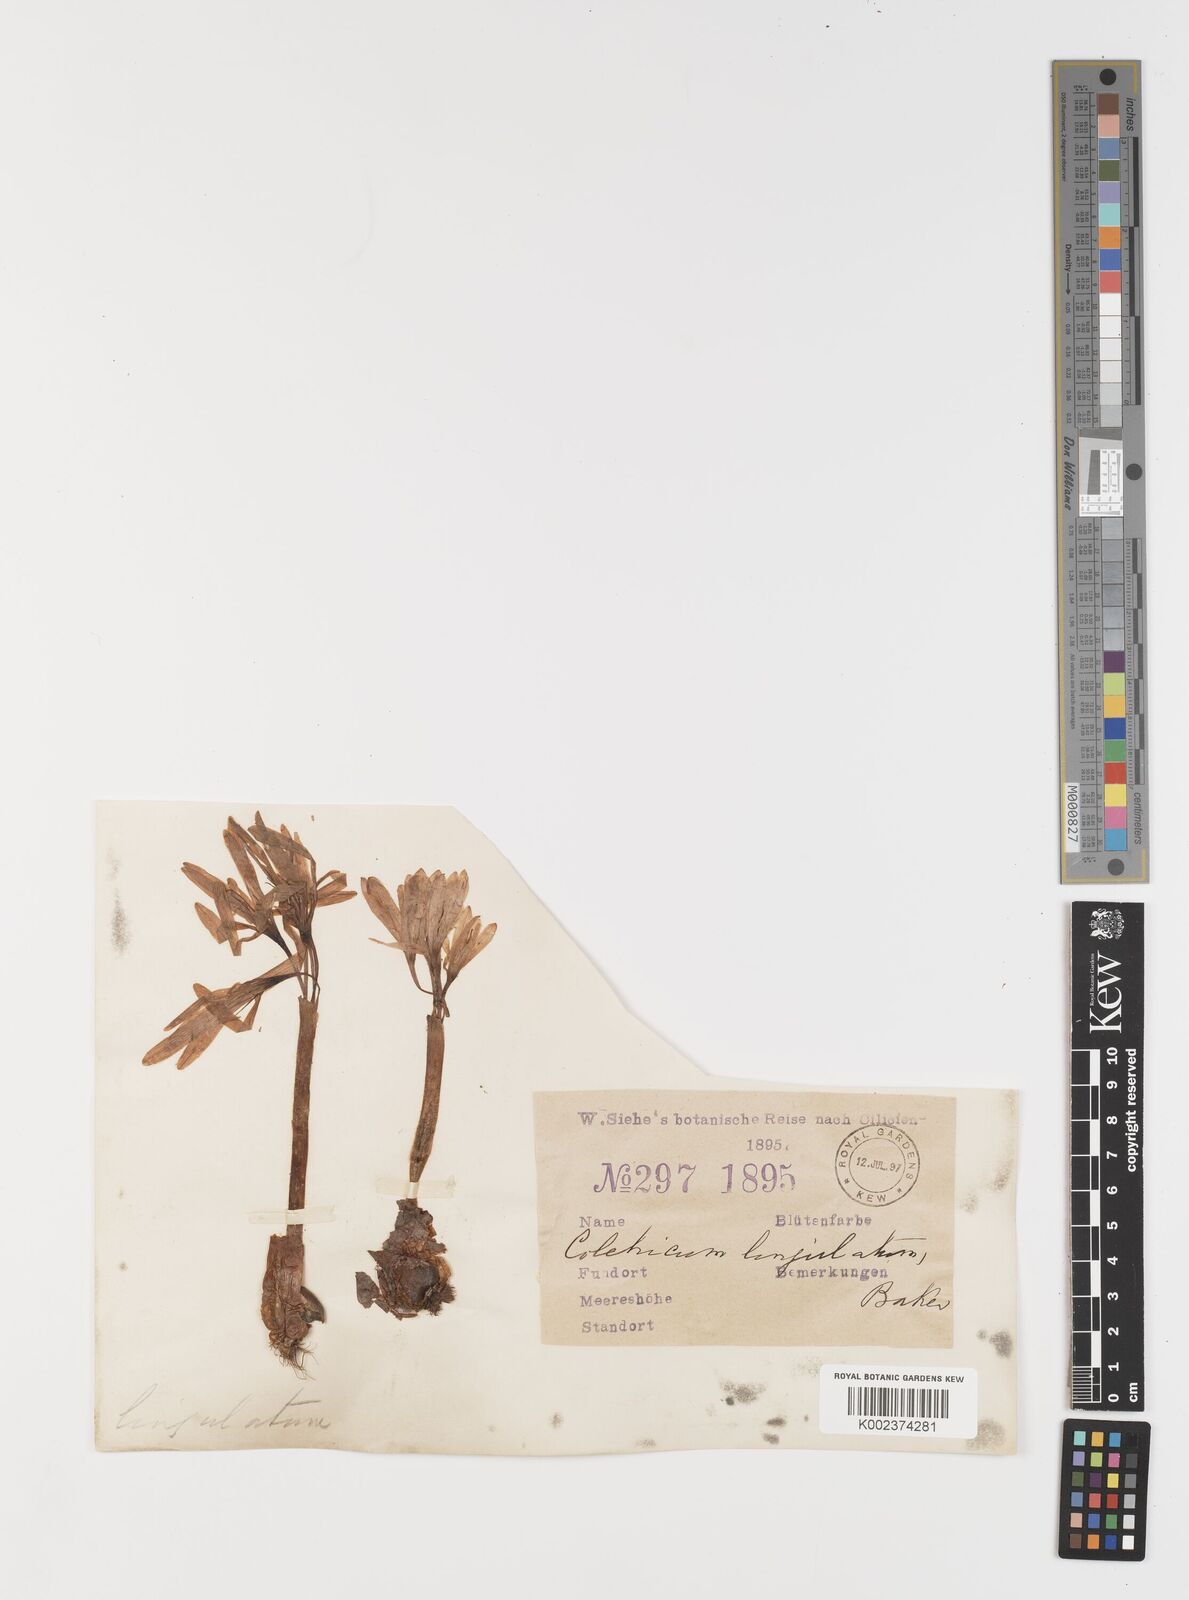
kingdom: Plantae
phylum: Tracheophyta
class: Liliopsida
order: Liliales
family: Colchicaceae
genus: Colchicum
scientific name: Colchicum
